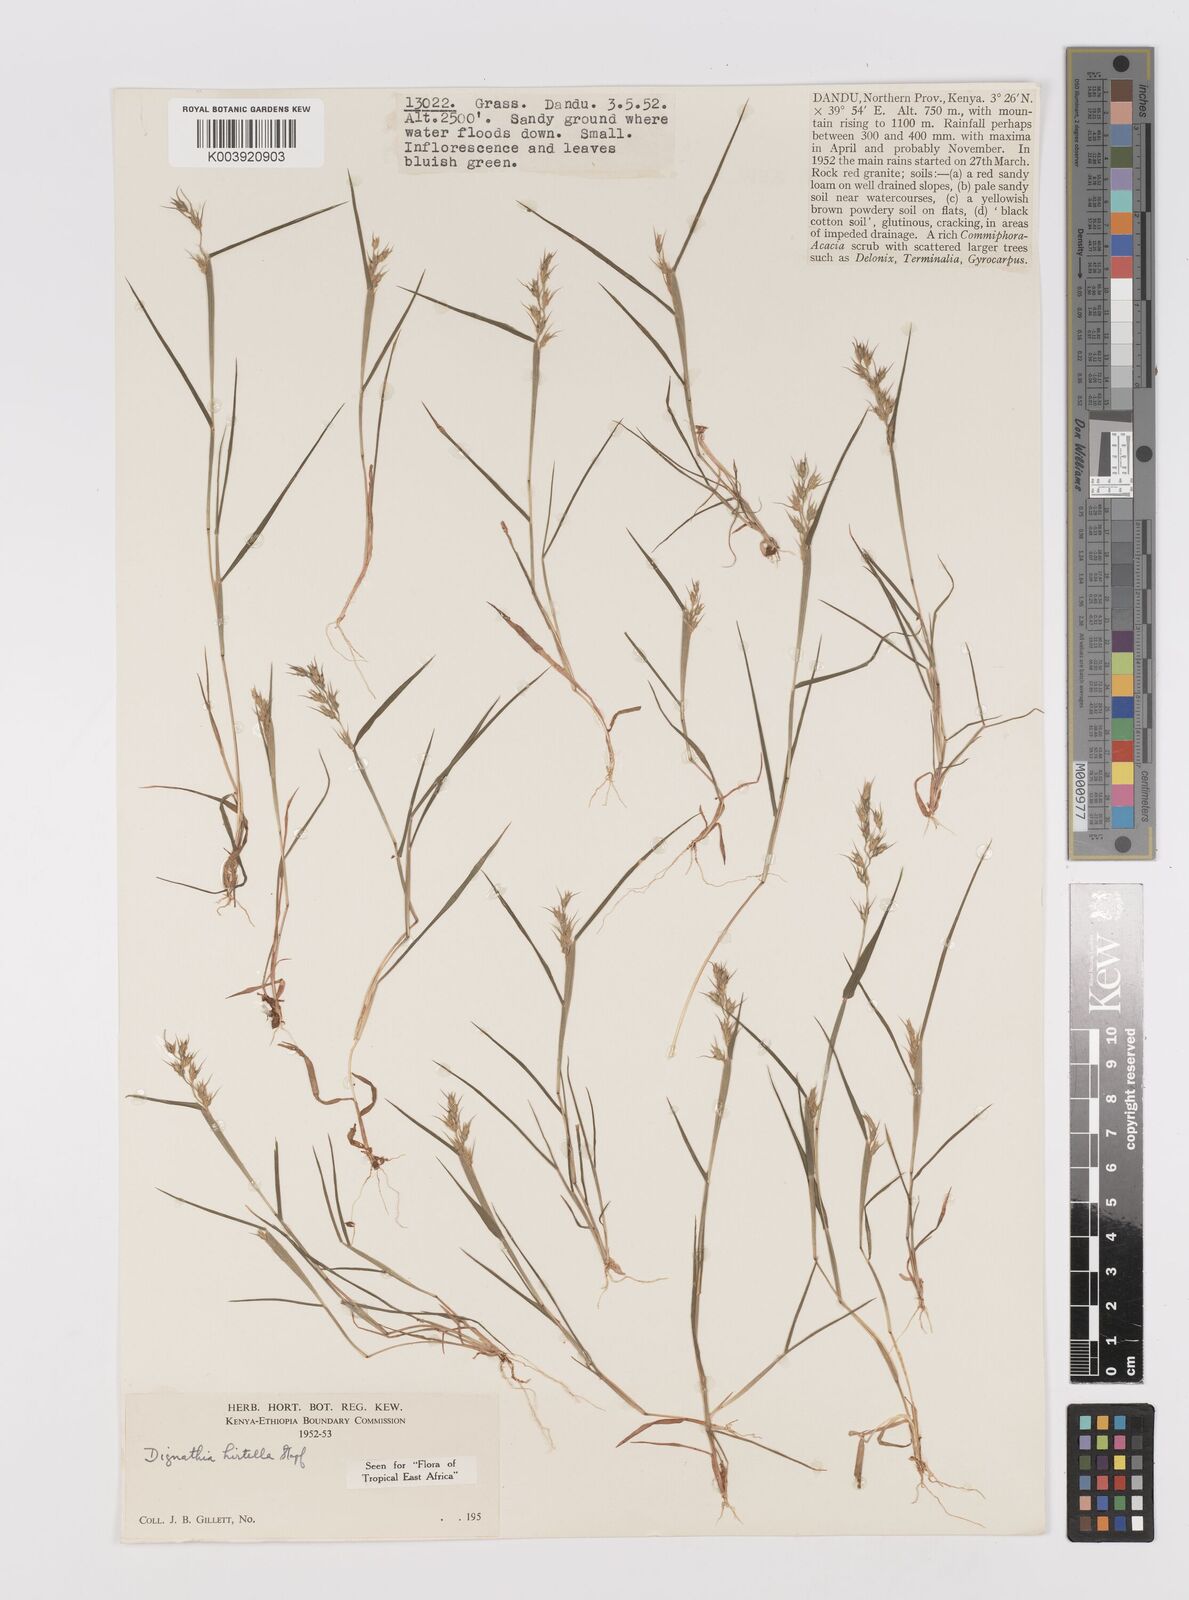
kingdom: Plantae
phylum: Tracheophyta
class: Liliopsida
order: Poales
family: Poaceae
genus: Dignathia
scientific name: Dignathia hirtella
